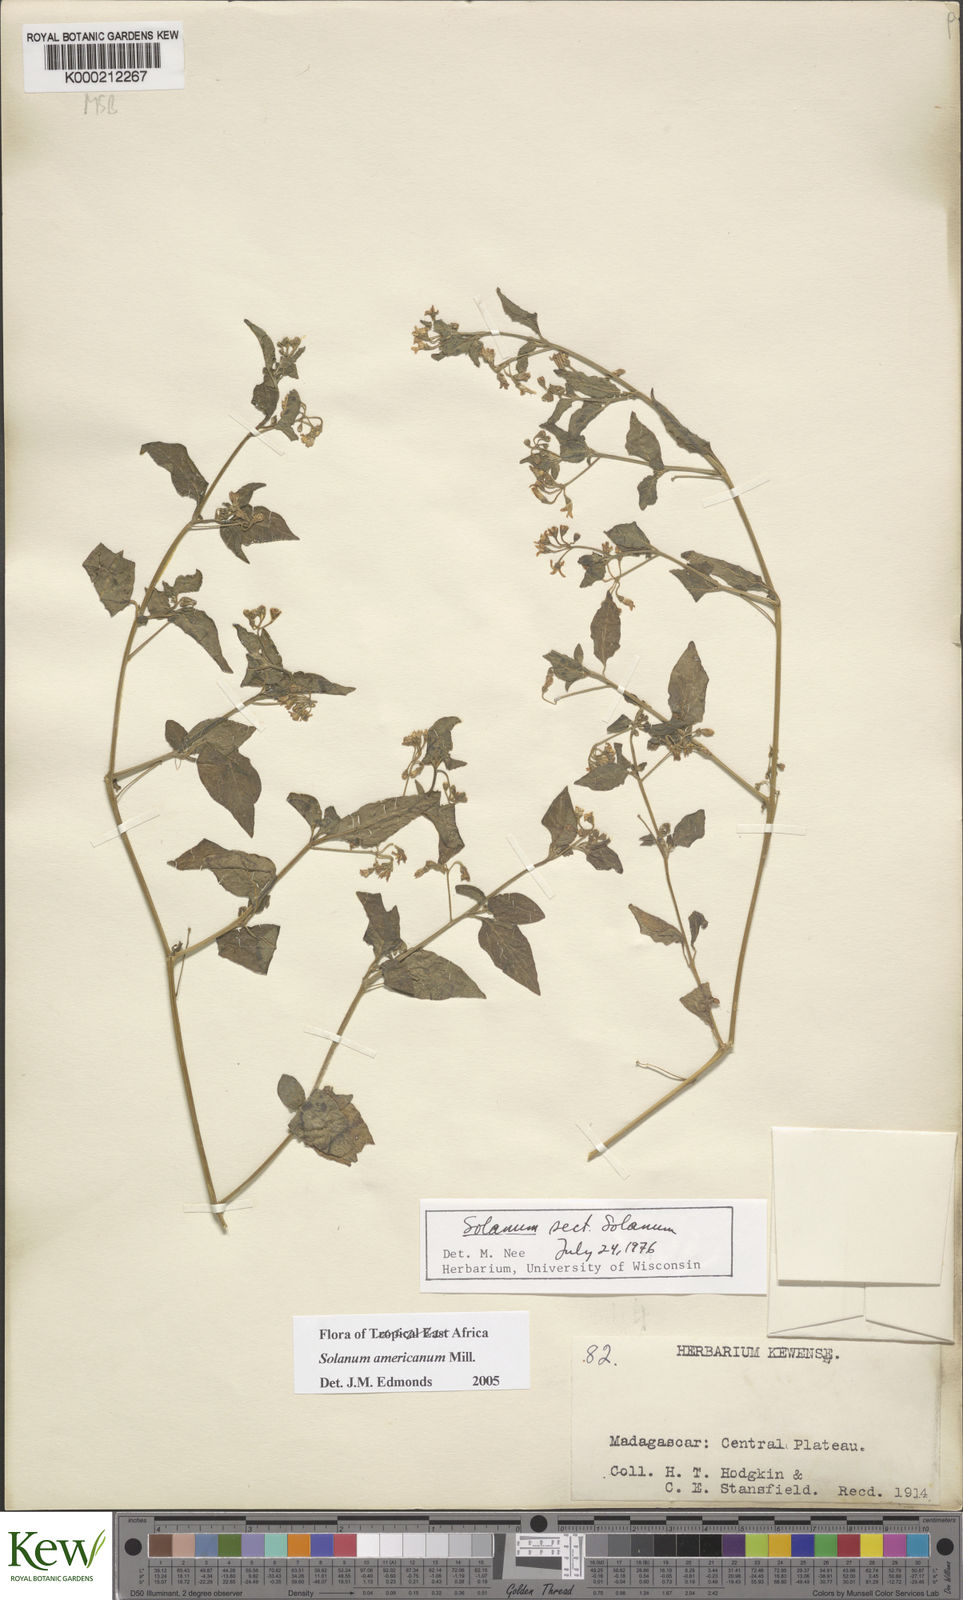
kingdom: Plantae
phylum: Tracheophyta
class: Magnoliopsida
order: Solanales
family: Solanaceae
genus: Solanum
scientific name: Solanum americanum
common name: American black nightshade
